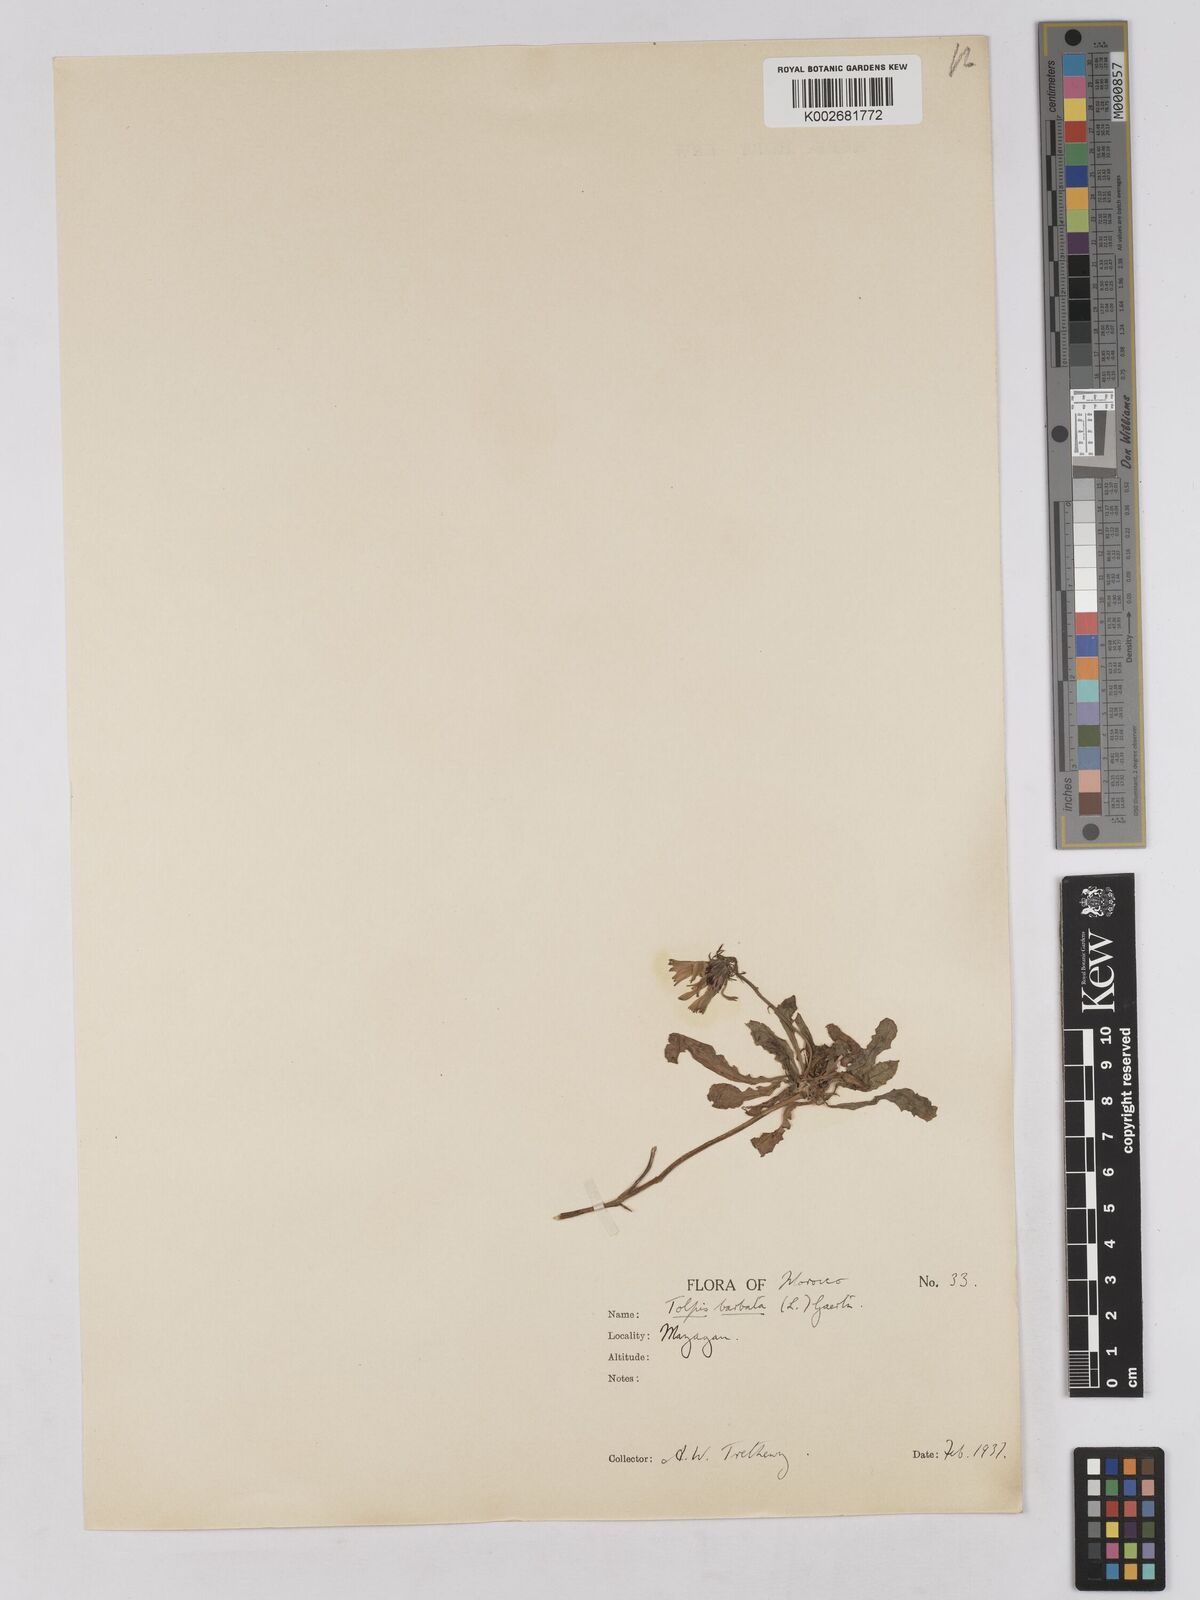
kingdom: Plantae
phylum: Tracheophyta
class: Magnoliopsida
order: Asterales
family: Asteraceae
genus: Tolpis
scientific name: Tolpis barbata
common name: Yellow hawkweed
